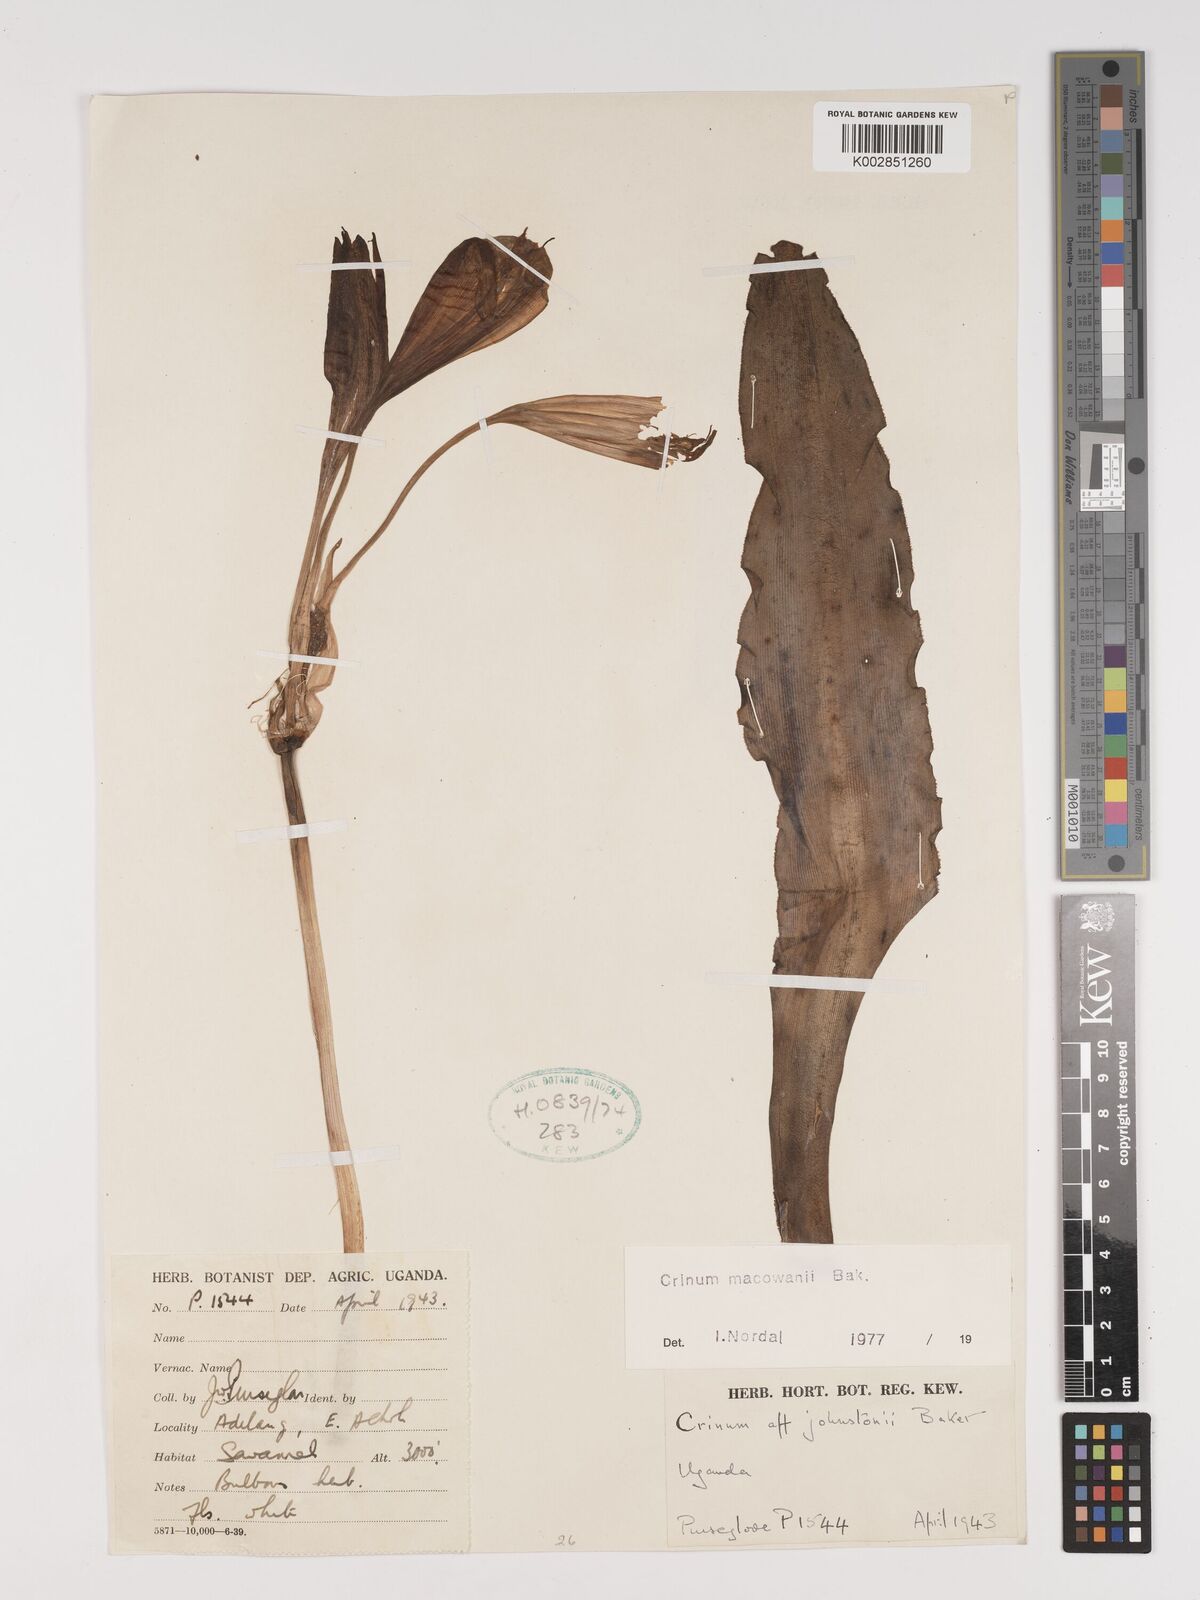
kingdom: Plantae
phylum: Tracheophyta
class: Liliopsida
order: Asparagales
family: Amaryllidaceae
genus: Crinum
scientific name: Crinum macowanii
